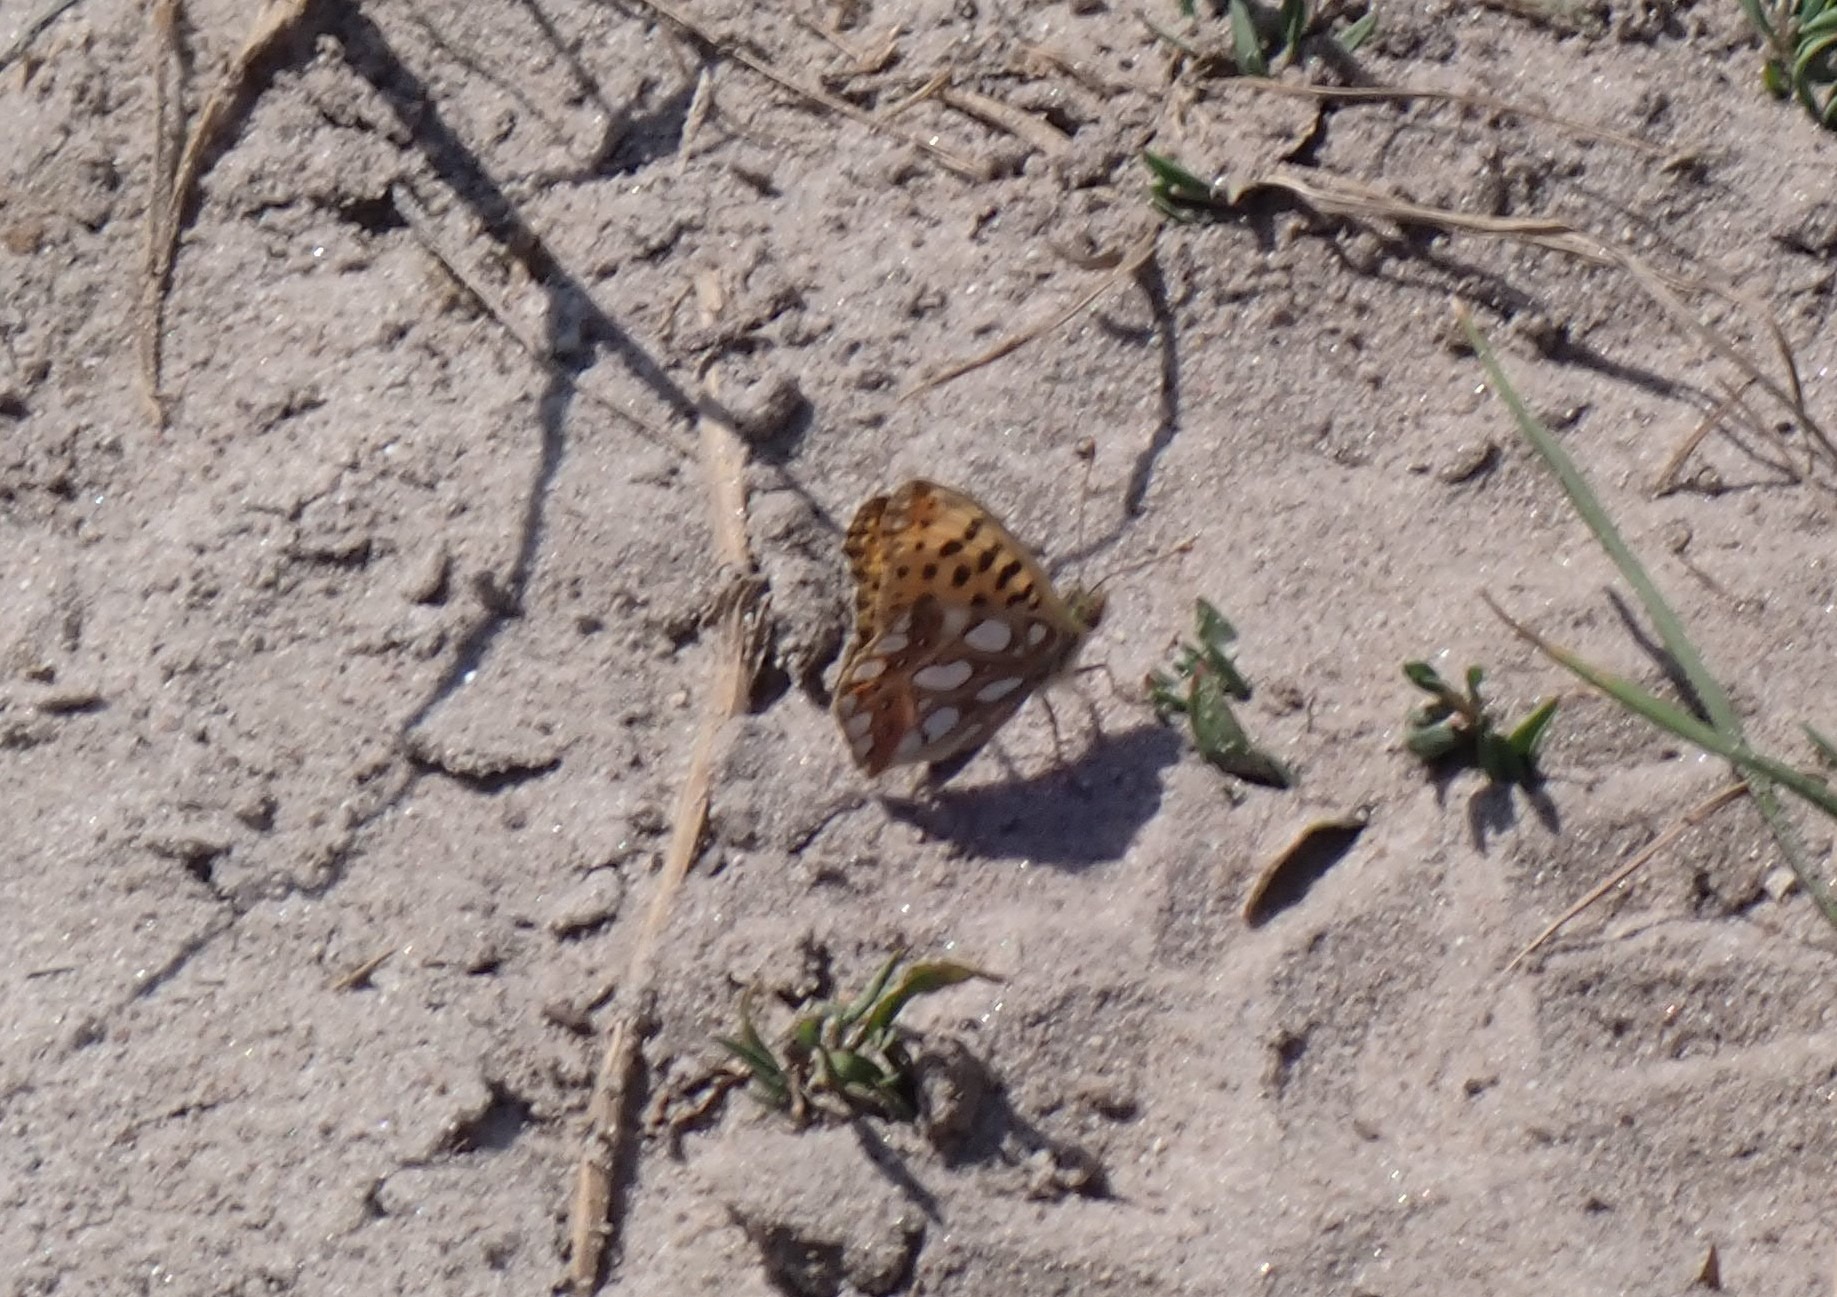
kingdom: Animalia
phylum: Arthropoda
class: Insecta
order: Lepidoptera
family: Nymphalidae
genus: Issoria
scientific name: Issoria lathonia
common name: Storplettet perlemorsommerfugl
